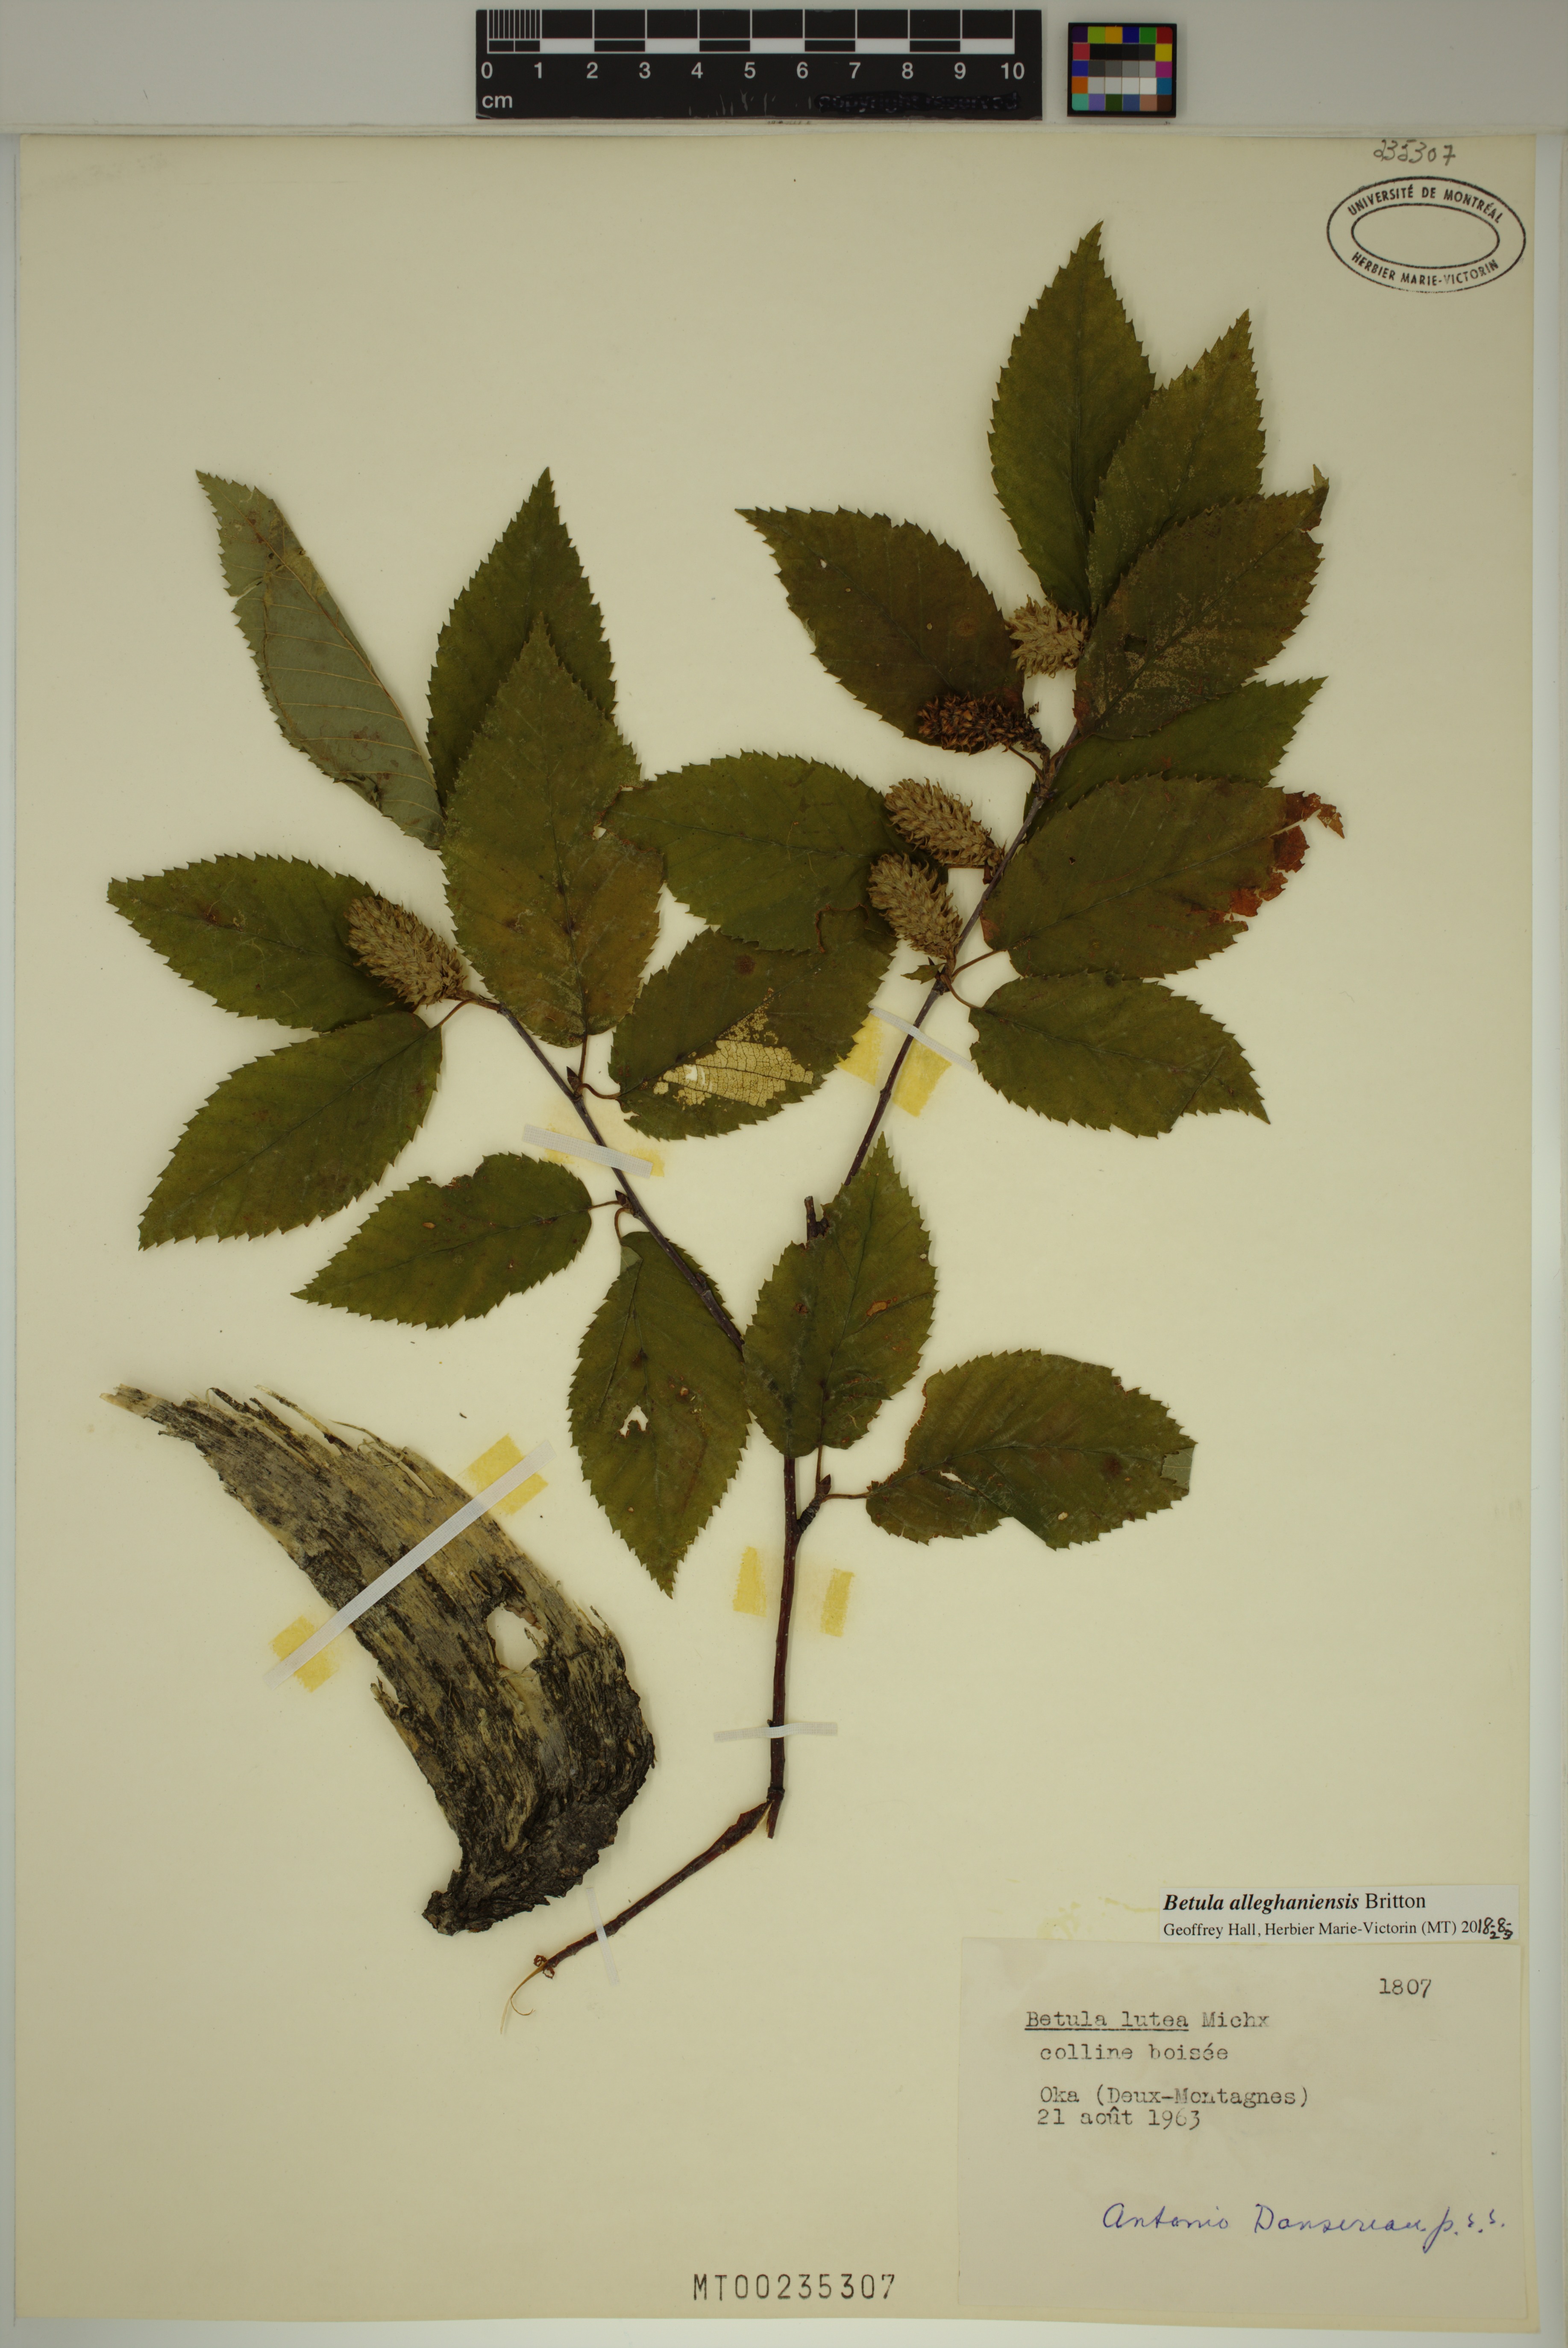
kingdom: Plantae
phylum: Tracheophyta
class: Magnoliopsida
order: Fagales
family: Betulaceae
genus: Betula
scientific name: Betula alleghaniensis
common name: Yellow birch
